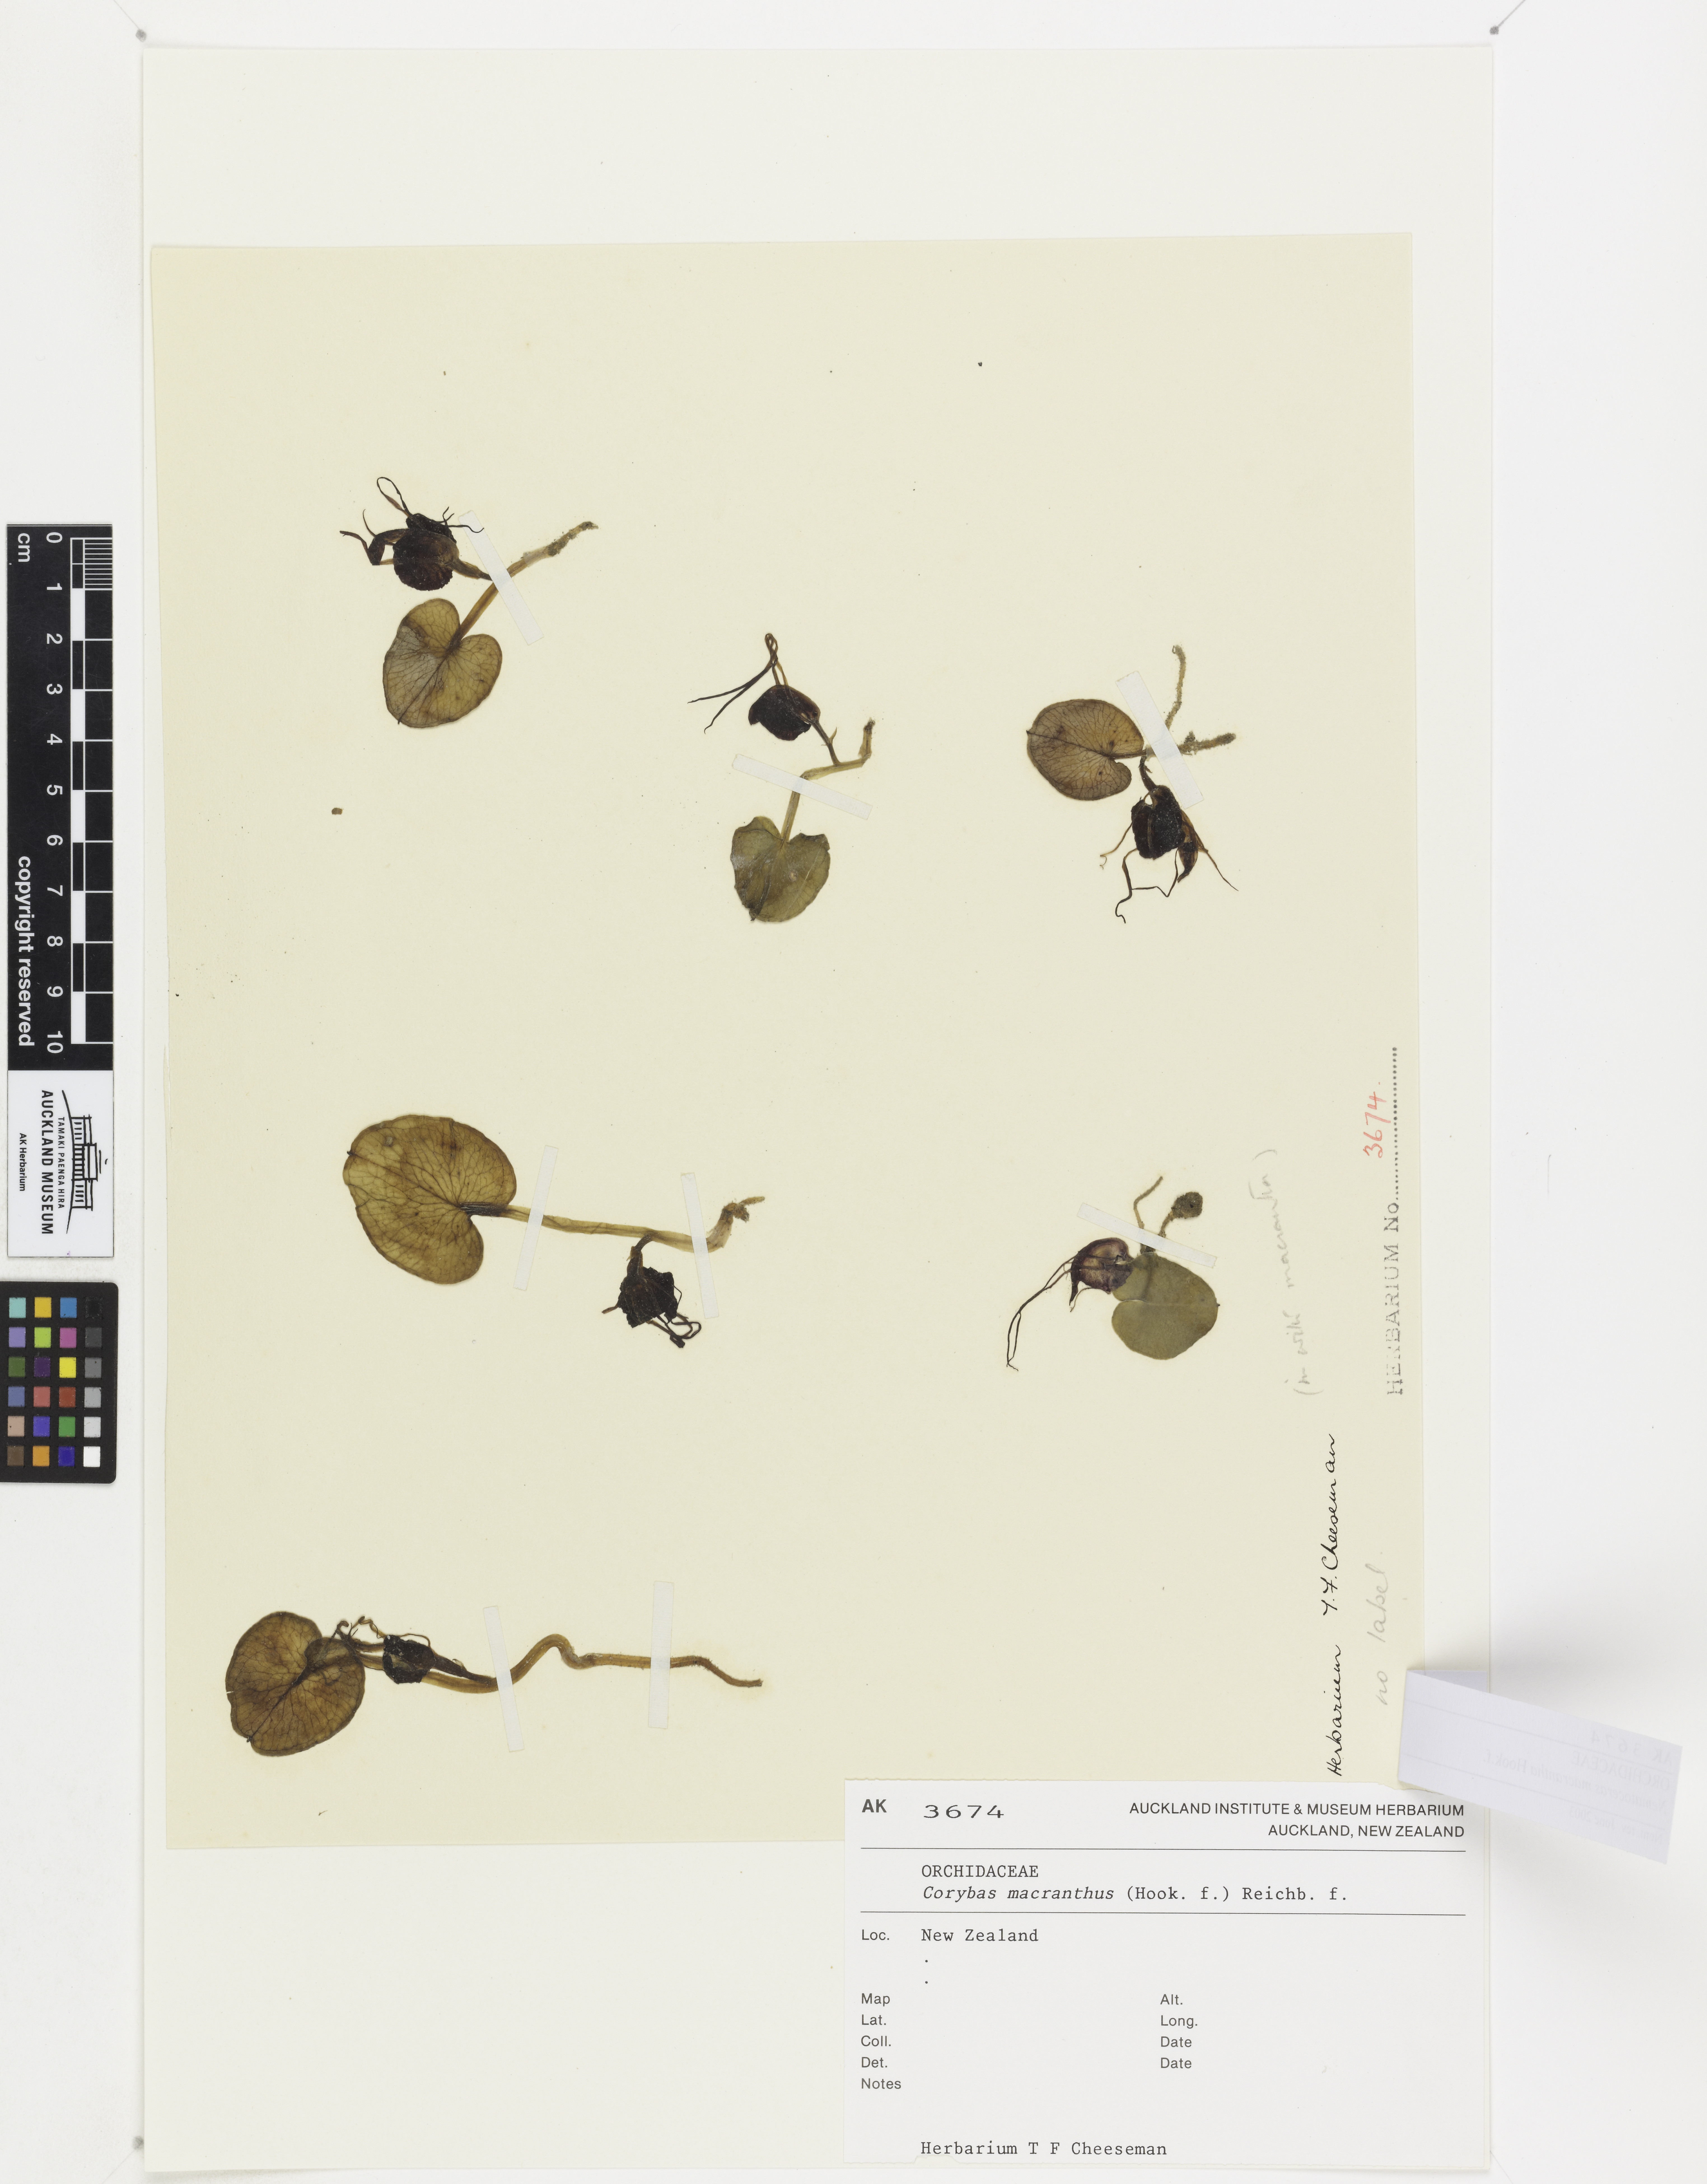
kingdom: Plantae
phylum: Tracheophyta
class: Liliopsida
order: Asparagales
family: Orchidaceae
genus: Corybas
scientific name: Corybas macranthus
